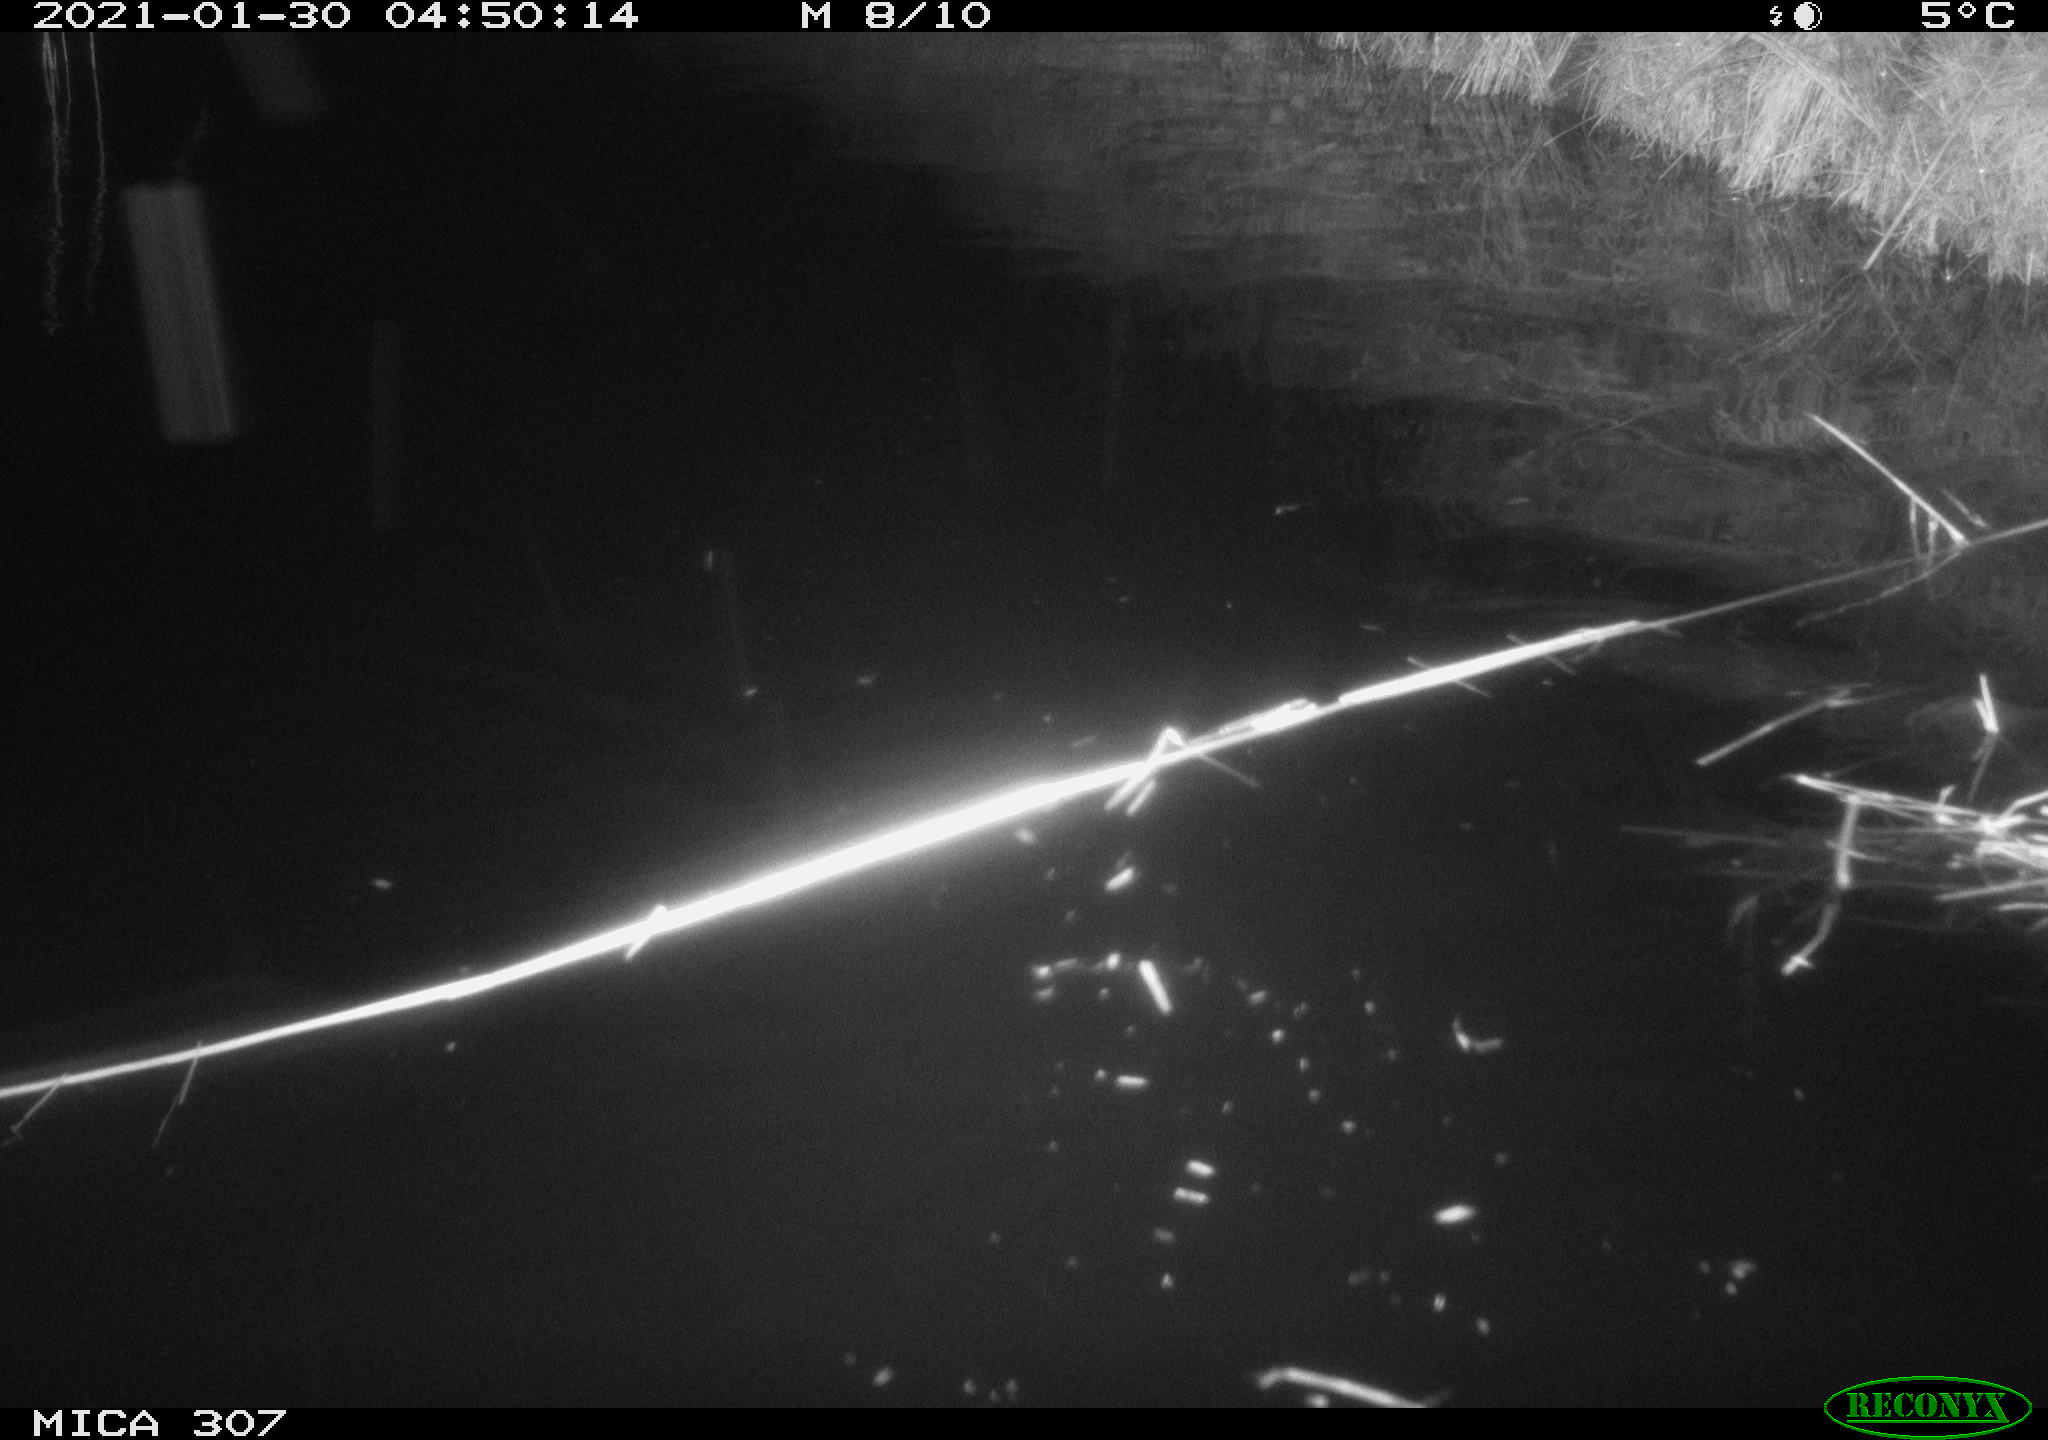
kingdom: Animalia
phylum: Chordata
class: Mammalia
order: Rodentia
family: Muridae
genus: Rattus
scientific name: Rattus norvegicus
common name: Brown rat
